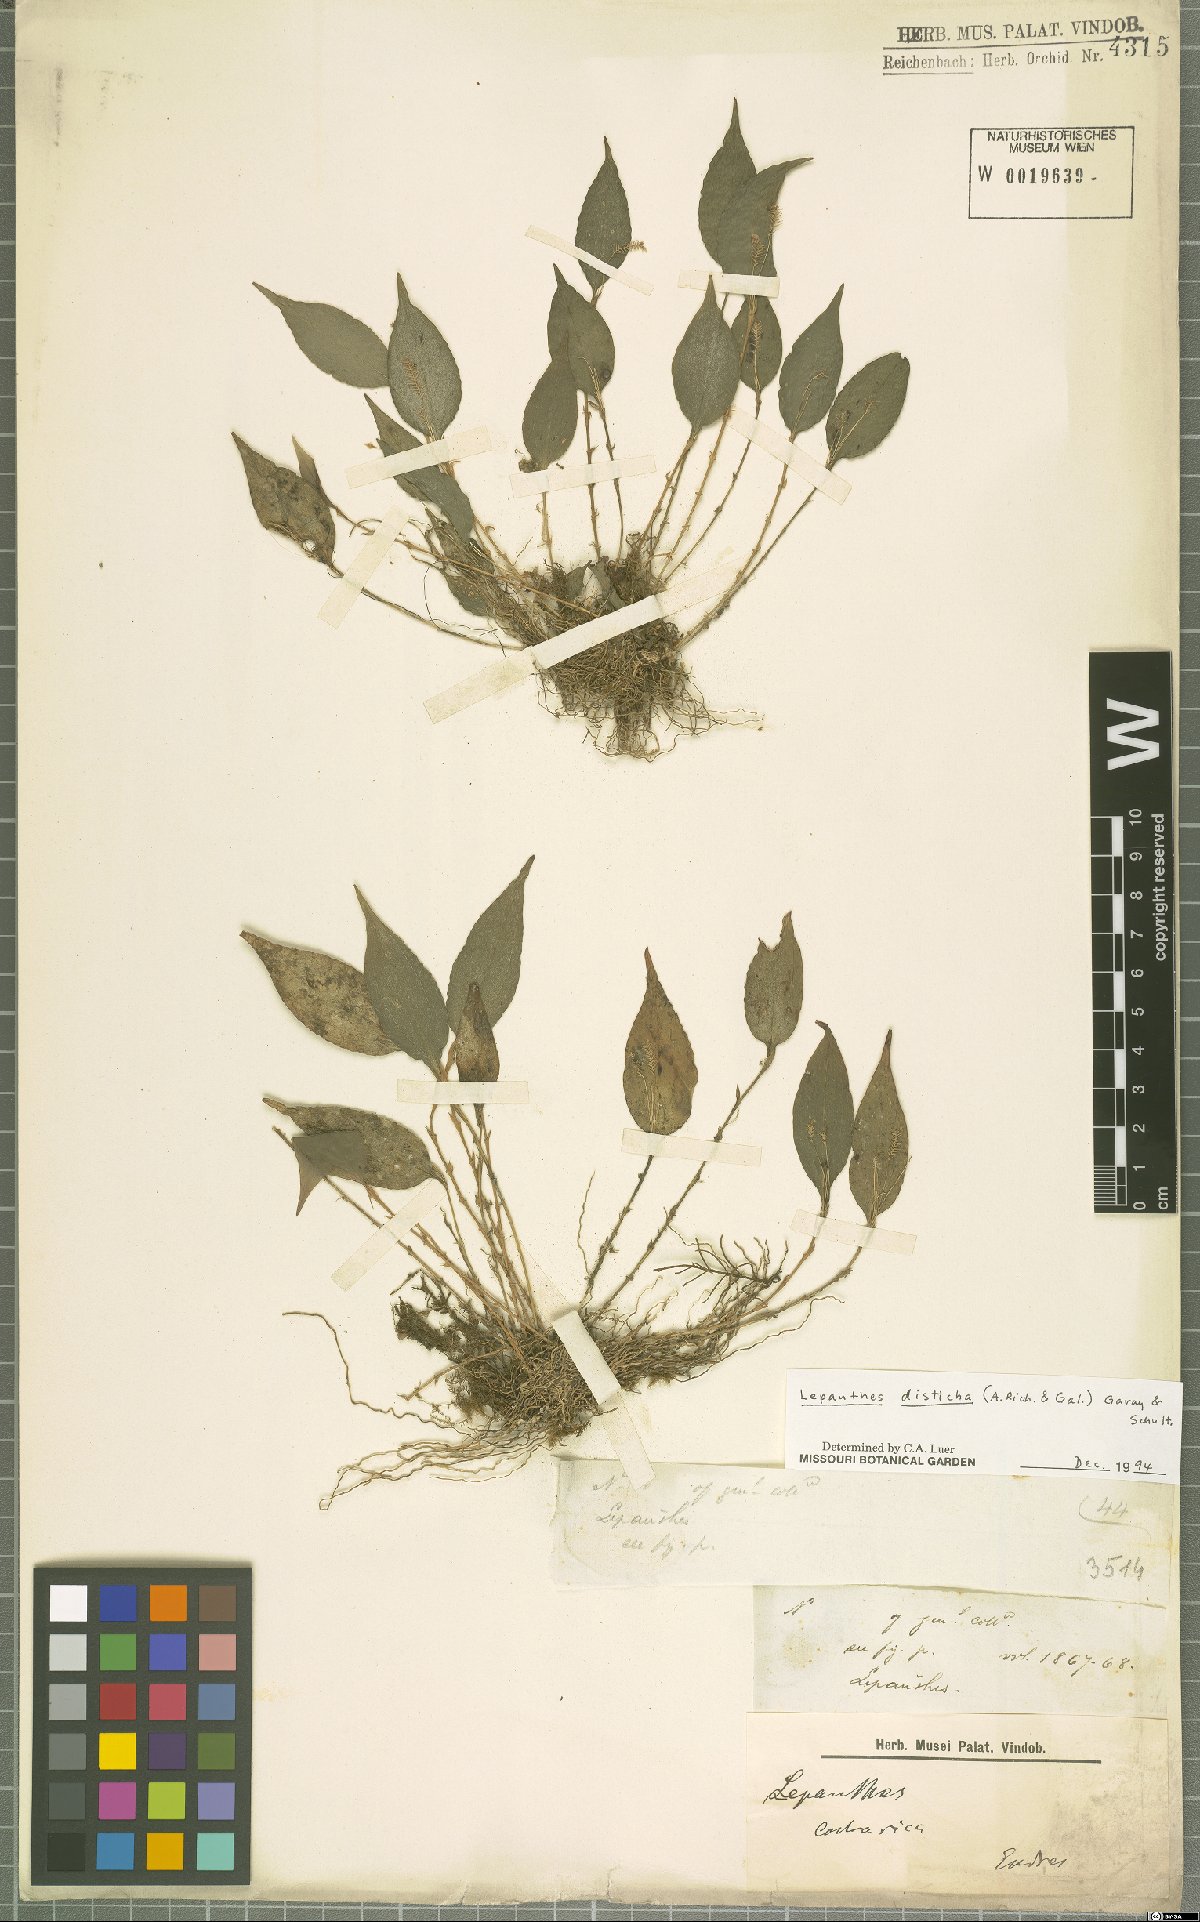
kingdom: Plantae
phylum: Tracheophyta
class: Liliopsida
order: Asparagales
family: Orchidaceae
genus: Lepanthes
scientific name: Lepanthes disticha
